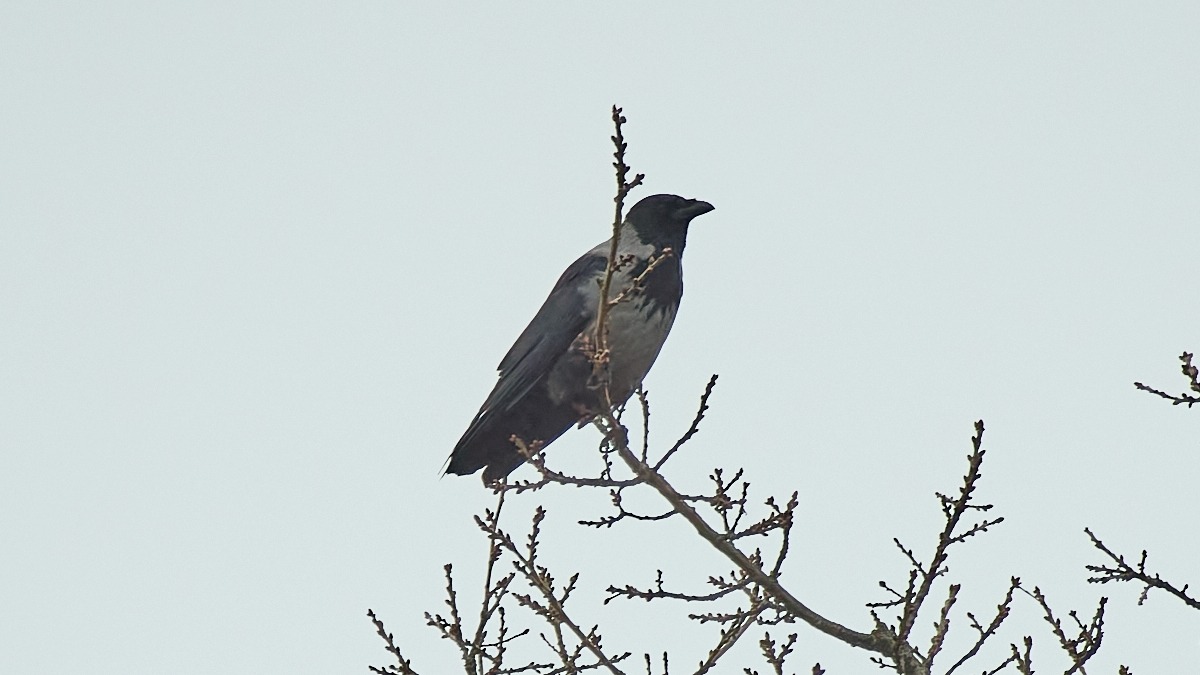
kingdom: Animalia
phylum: Chordata
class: Aves
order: Passeriformes
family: Corvidae
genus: Corvus
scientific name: Corvus cornix
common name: Gråkrage
